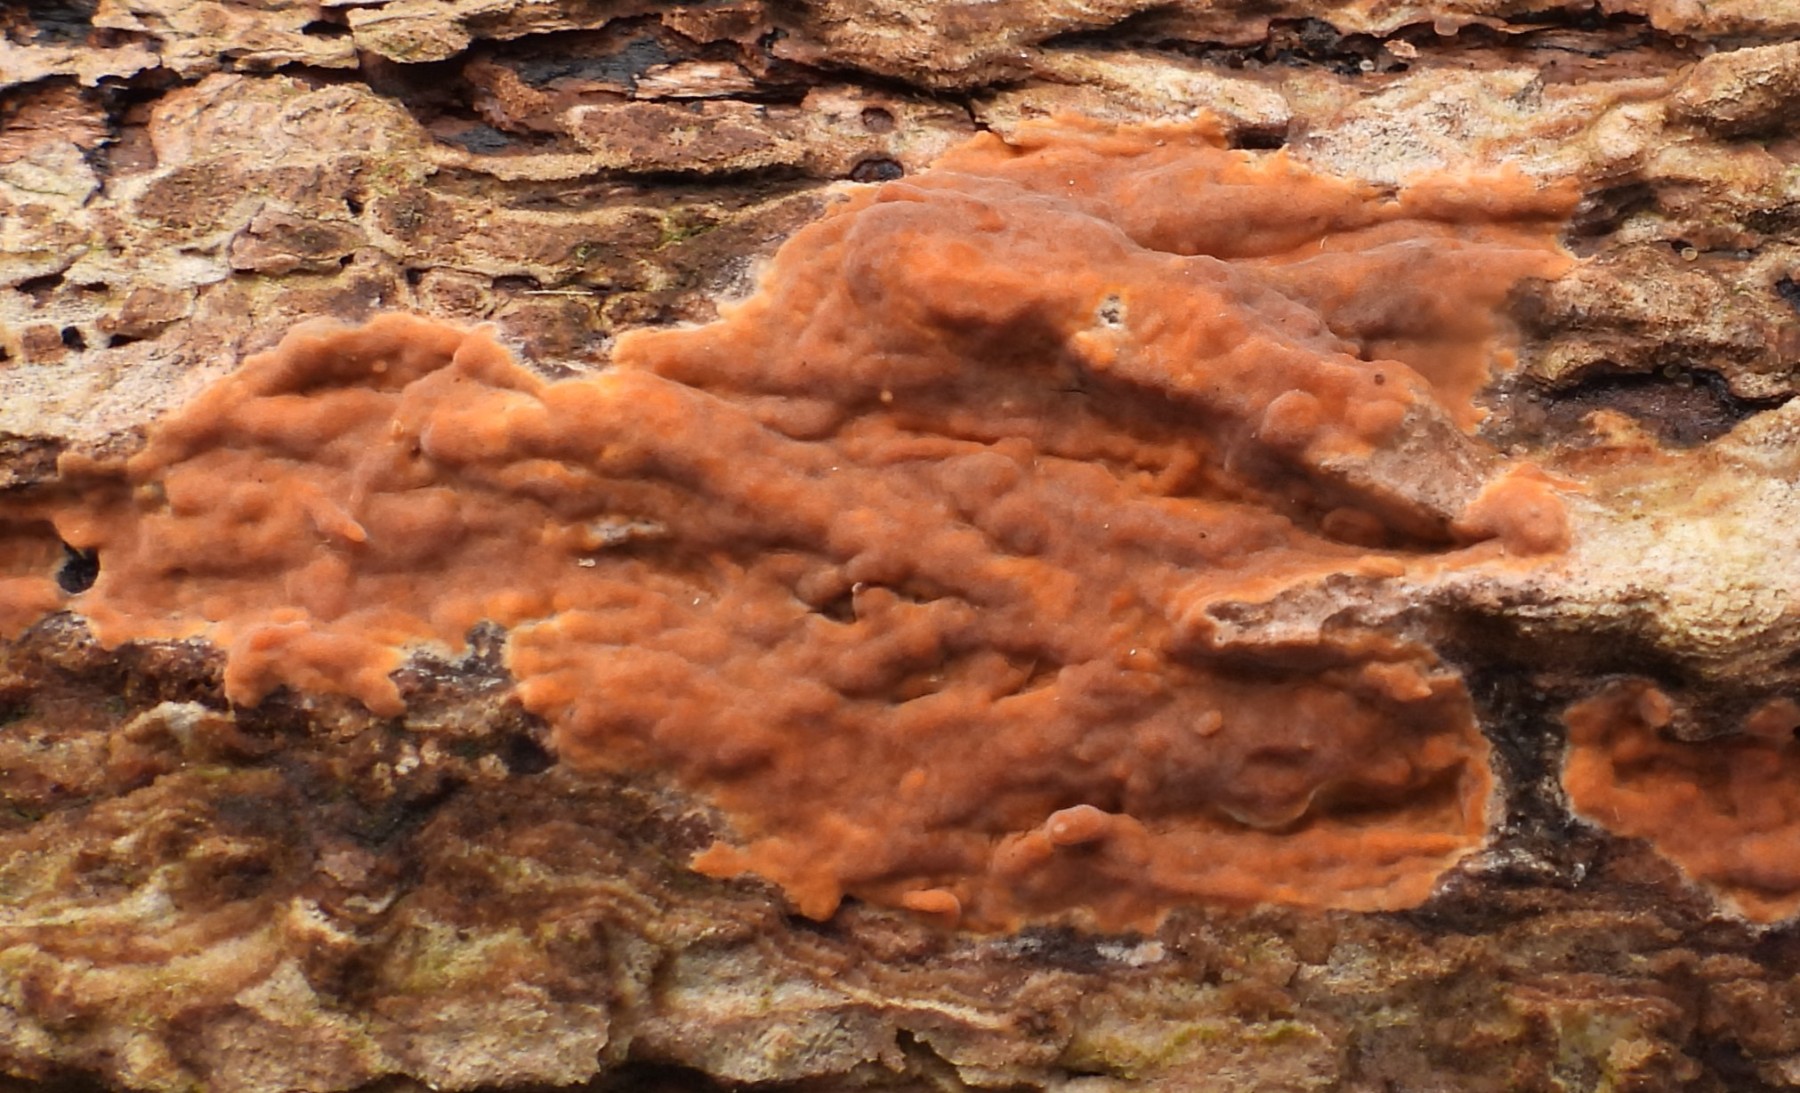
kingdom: Fungi
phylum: Basidiomycota
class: Agaricomycetes
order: Russulales
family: Peniophoraceae
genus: Peniophora
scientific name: Peniophora incarnata
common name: laksefarvet voksskind
